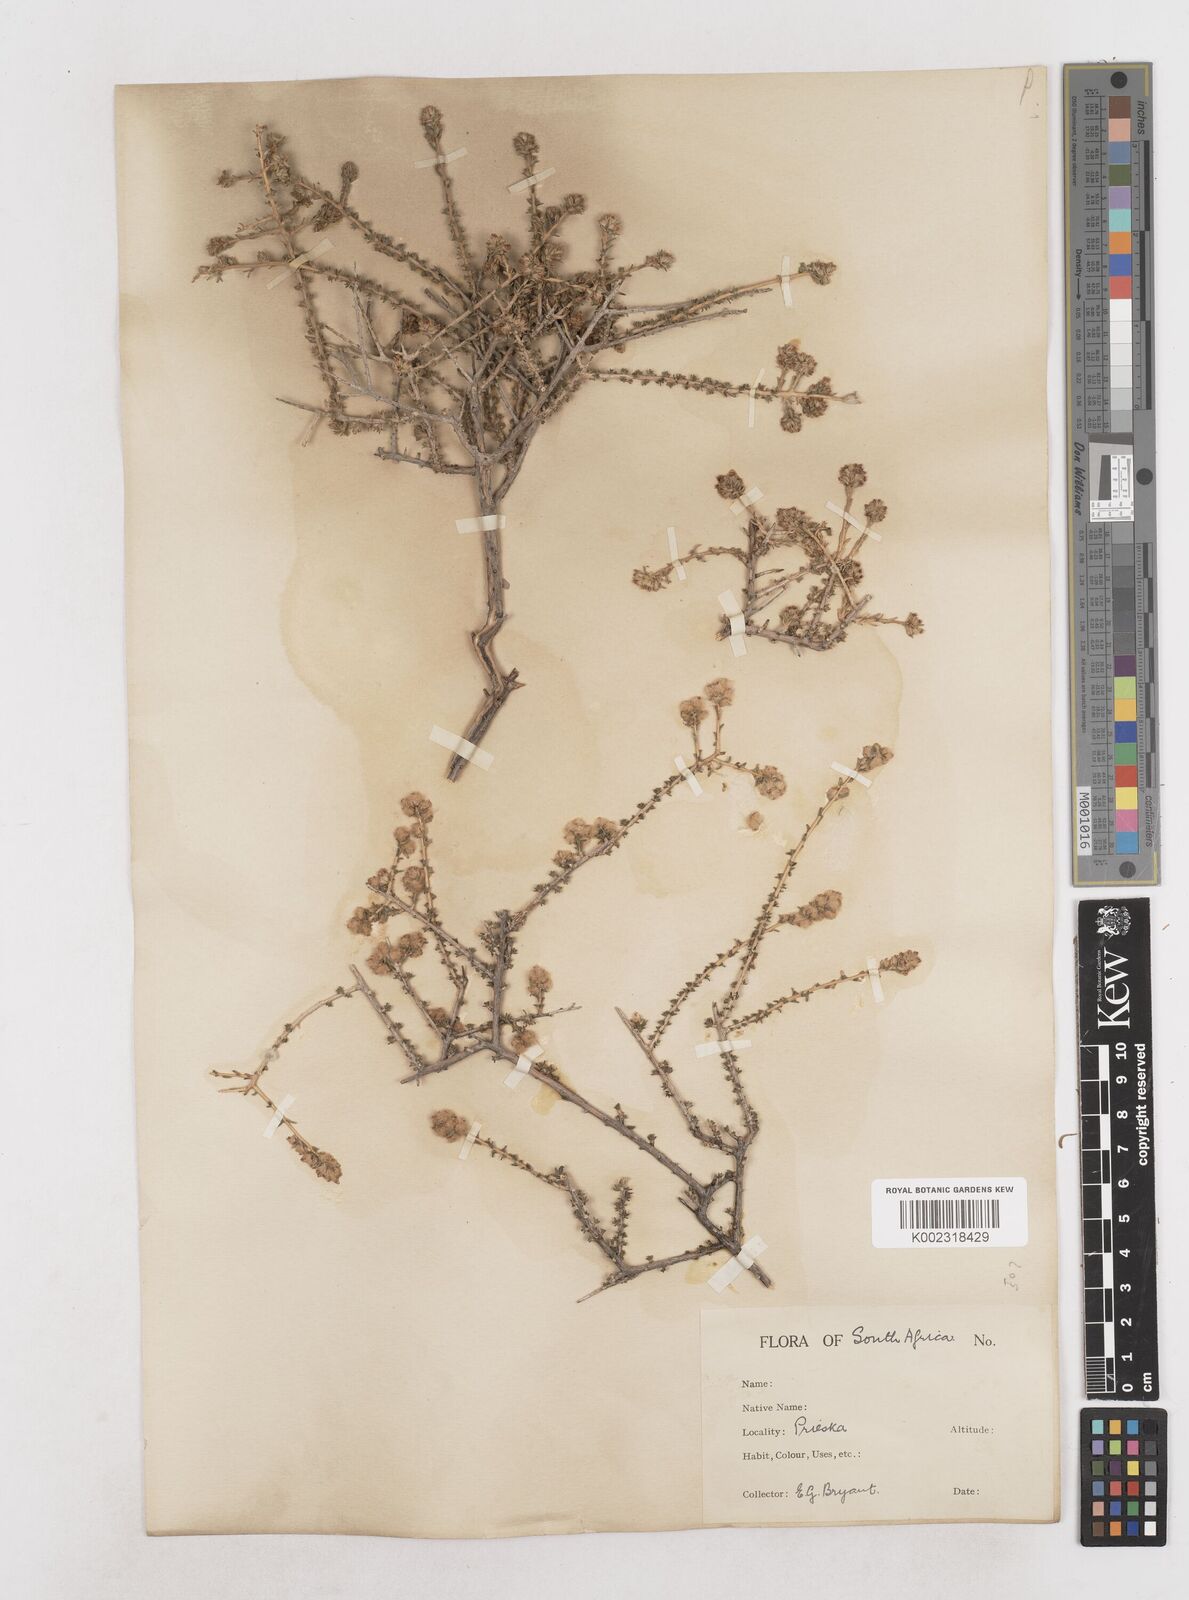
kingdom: Plantae
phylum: Tracheophyta
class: Magnoliopsida
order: Asterales
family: Asteraceae
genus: Eriocephalus
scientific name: Eriocephalus
